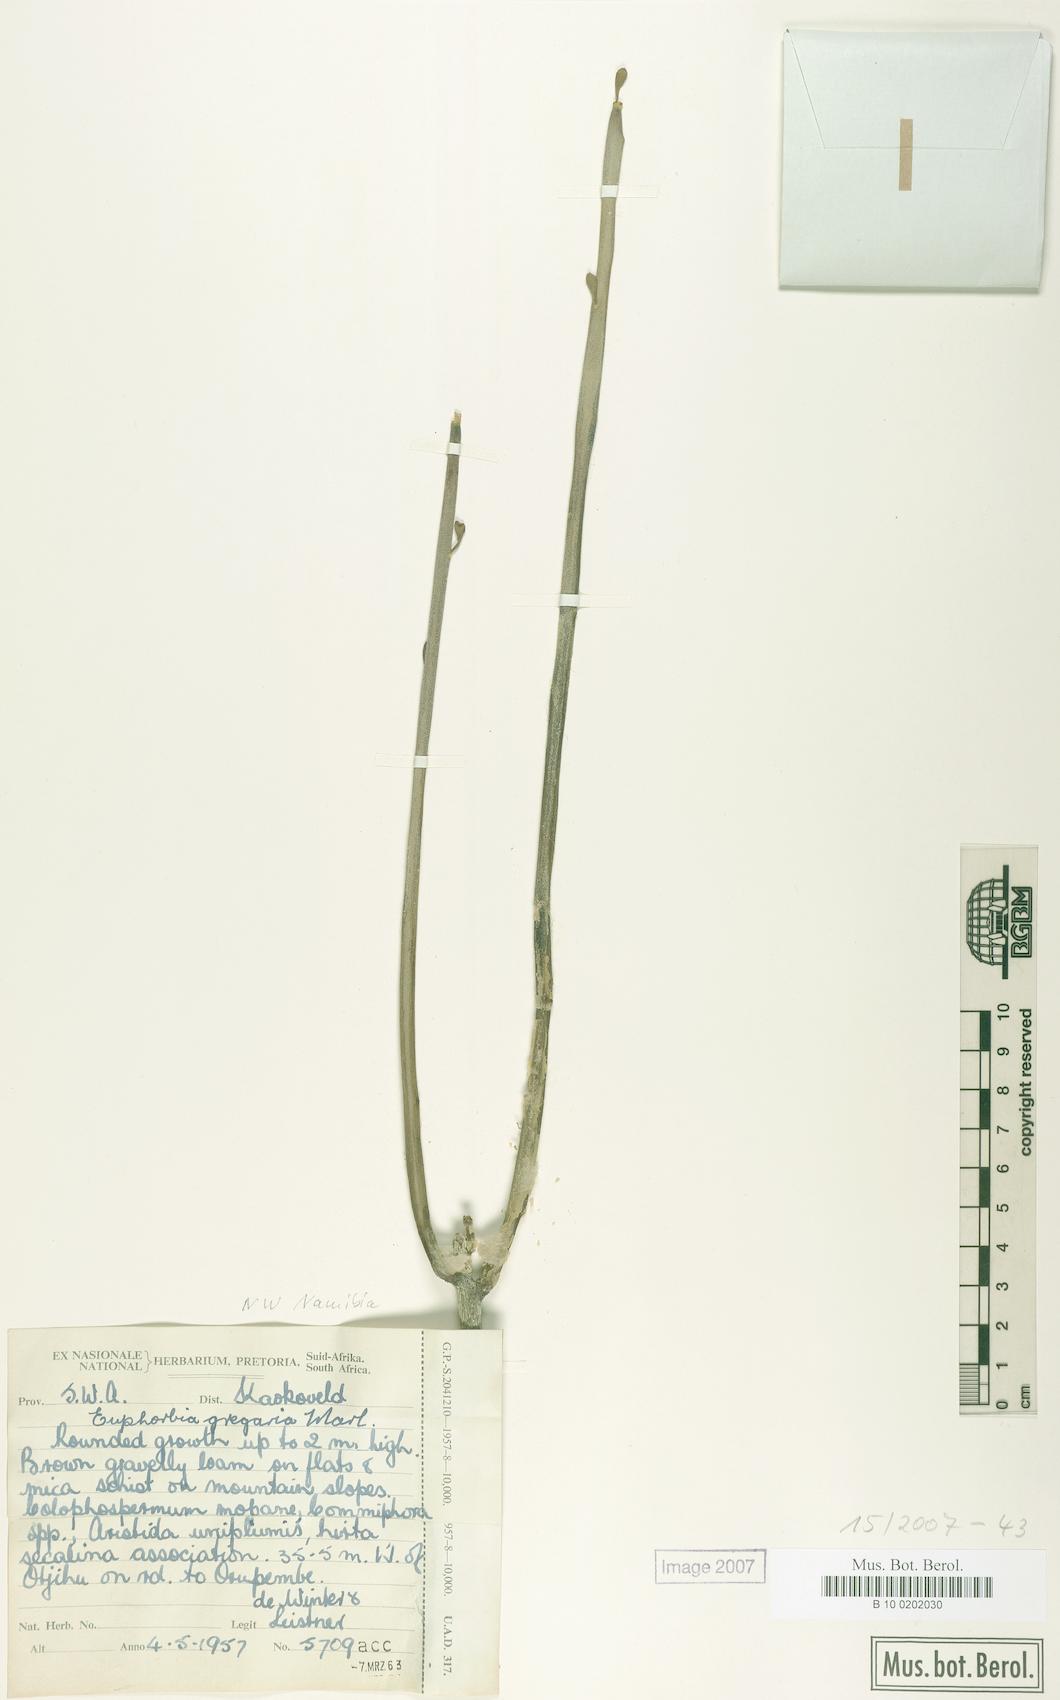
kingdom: Plantae
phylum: Tracheophyta
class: Magnoliopsida
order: Malpighiales
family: Euphorbiaceae
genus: Euphorbia
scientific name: Euphorbia gregaria
